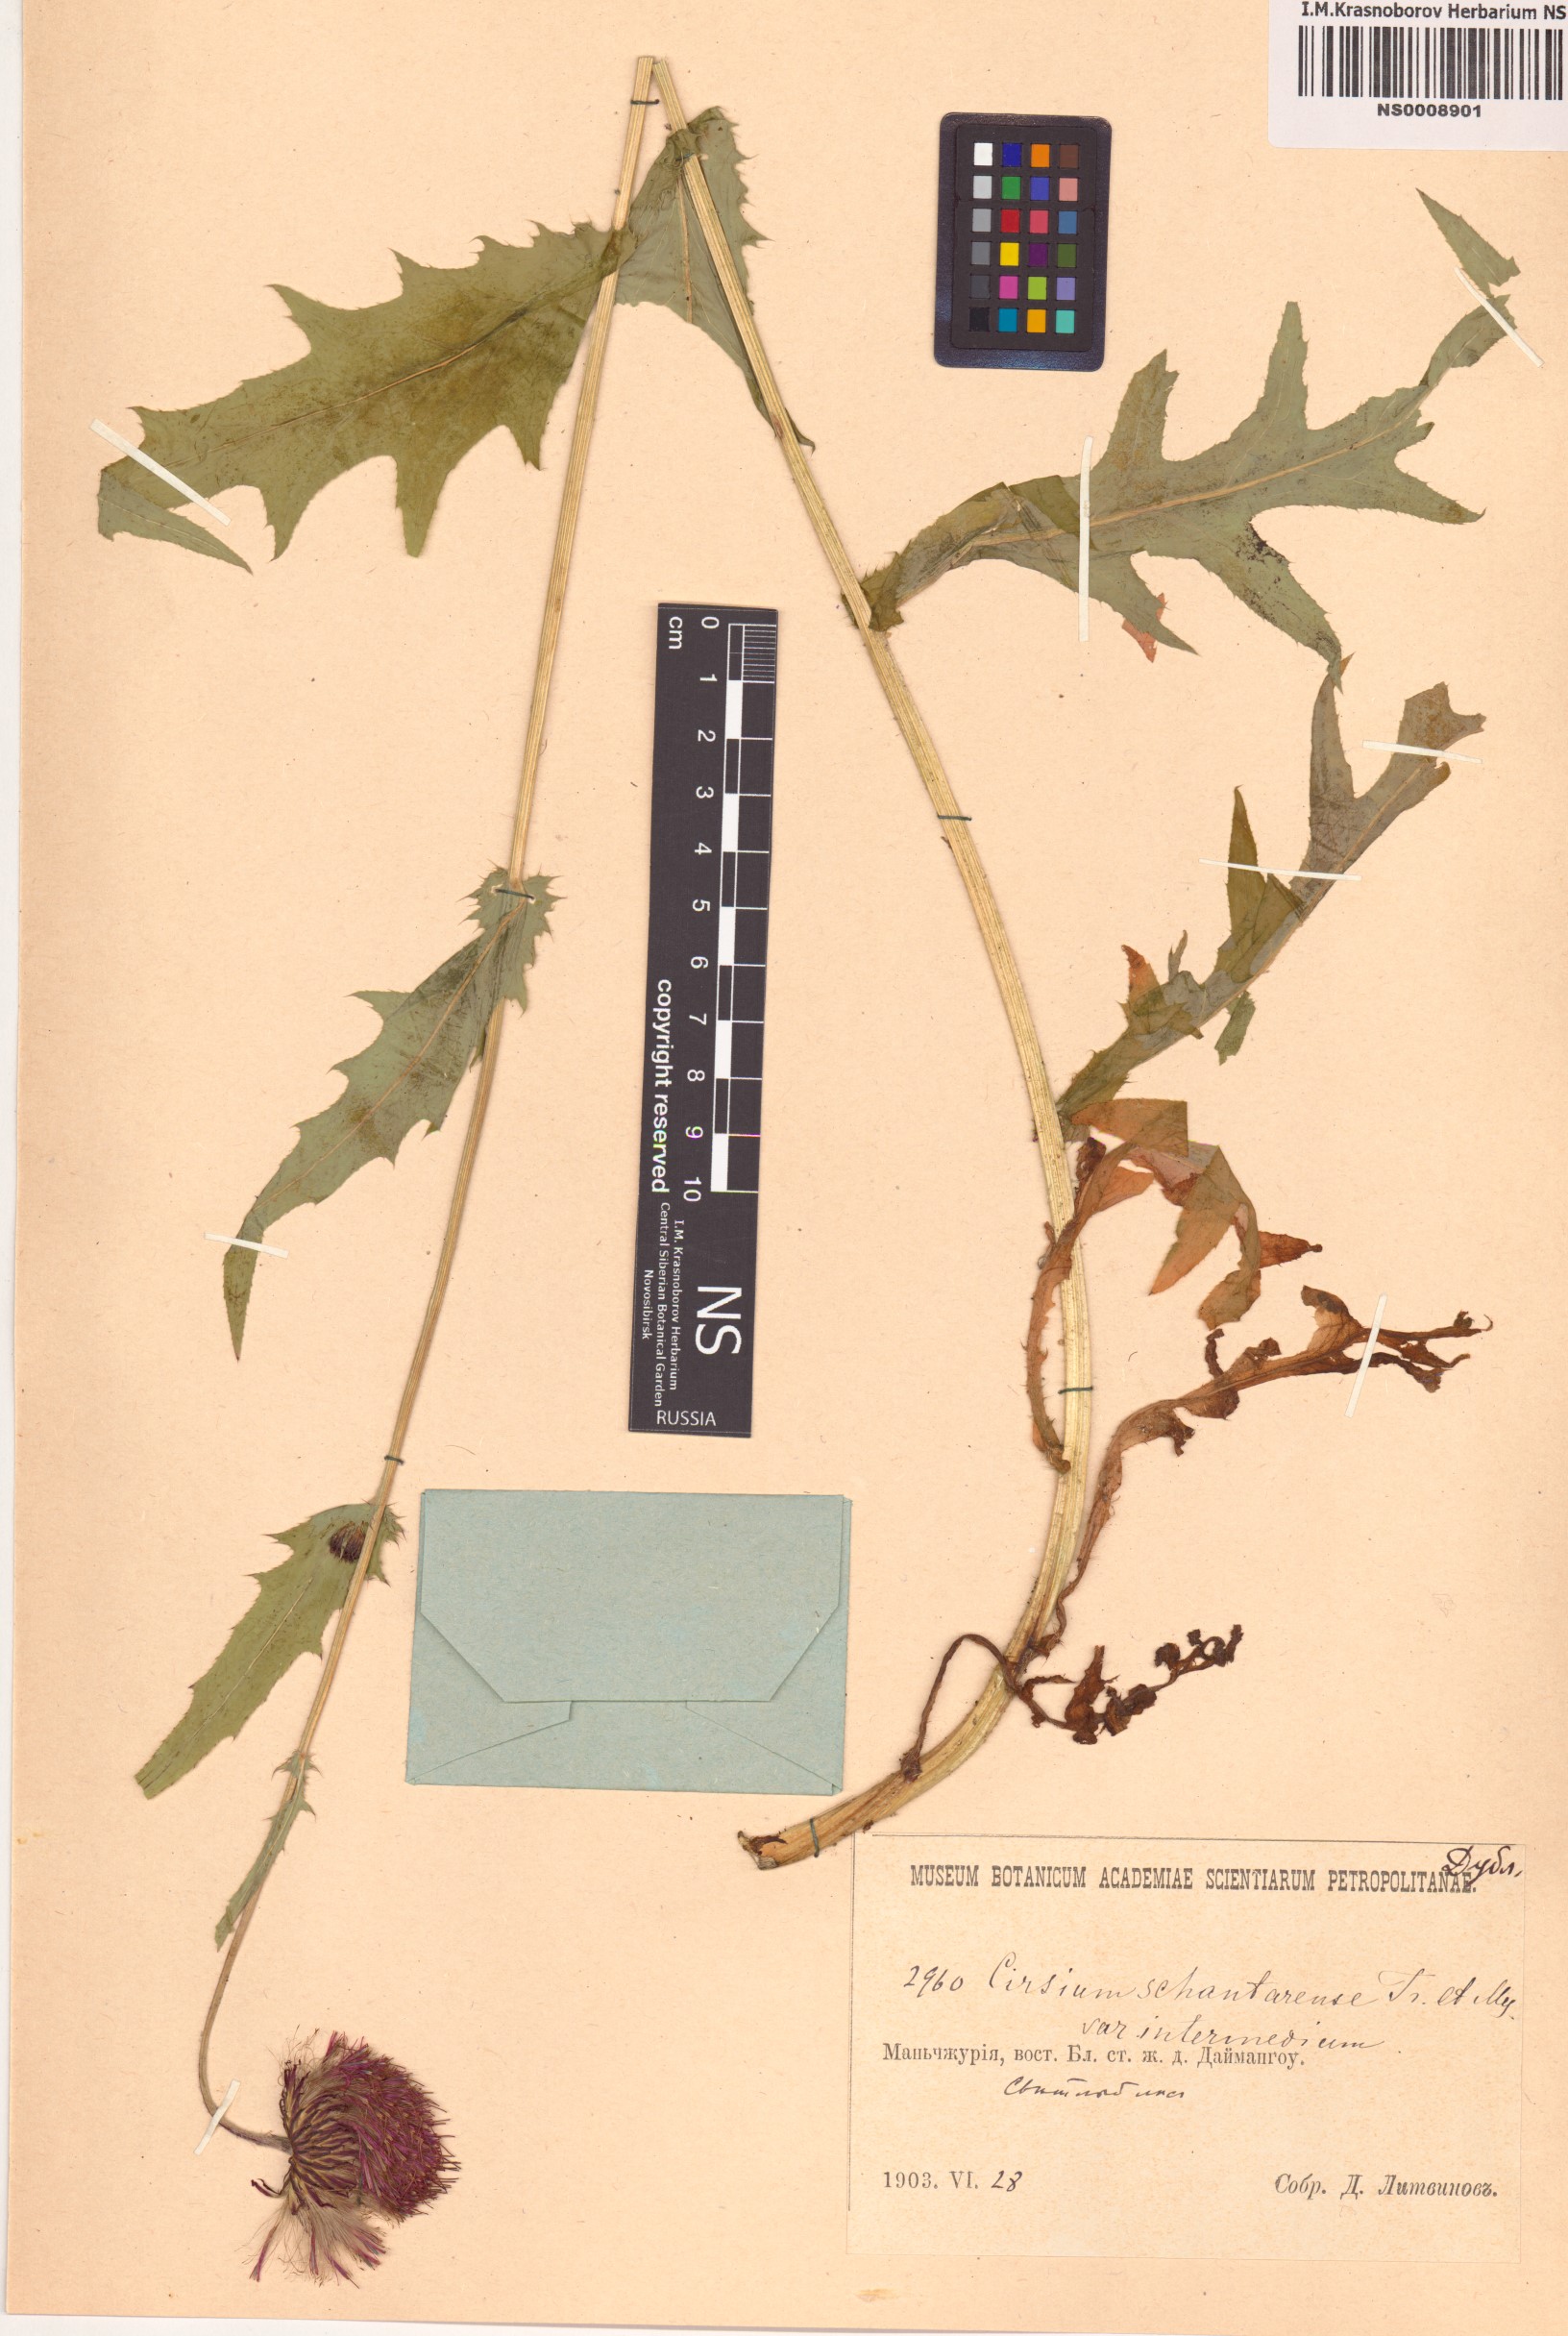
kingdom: Plantae
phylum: Tracheophyta
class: Magnoliopsida
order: Asterales
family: Asteraceae
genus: Cirsium
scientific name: Cirsium schantarense
